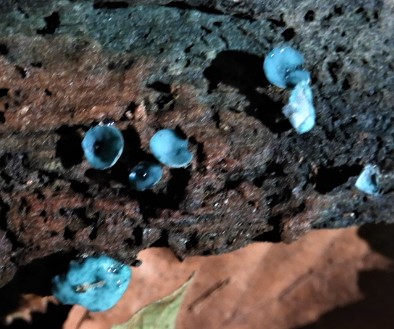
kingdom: Fungi
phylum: Ascomycota
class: Leotiomycetes
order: Helotiales
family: Chlorociboriaceae
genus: Chlorociboria
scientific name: Chlorociboria aeruginascens
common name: almindelig grønskive
